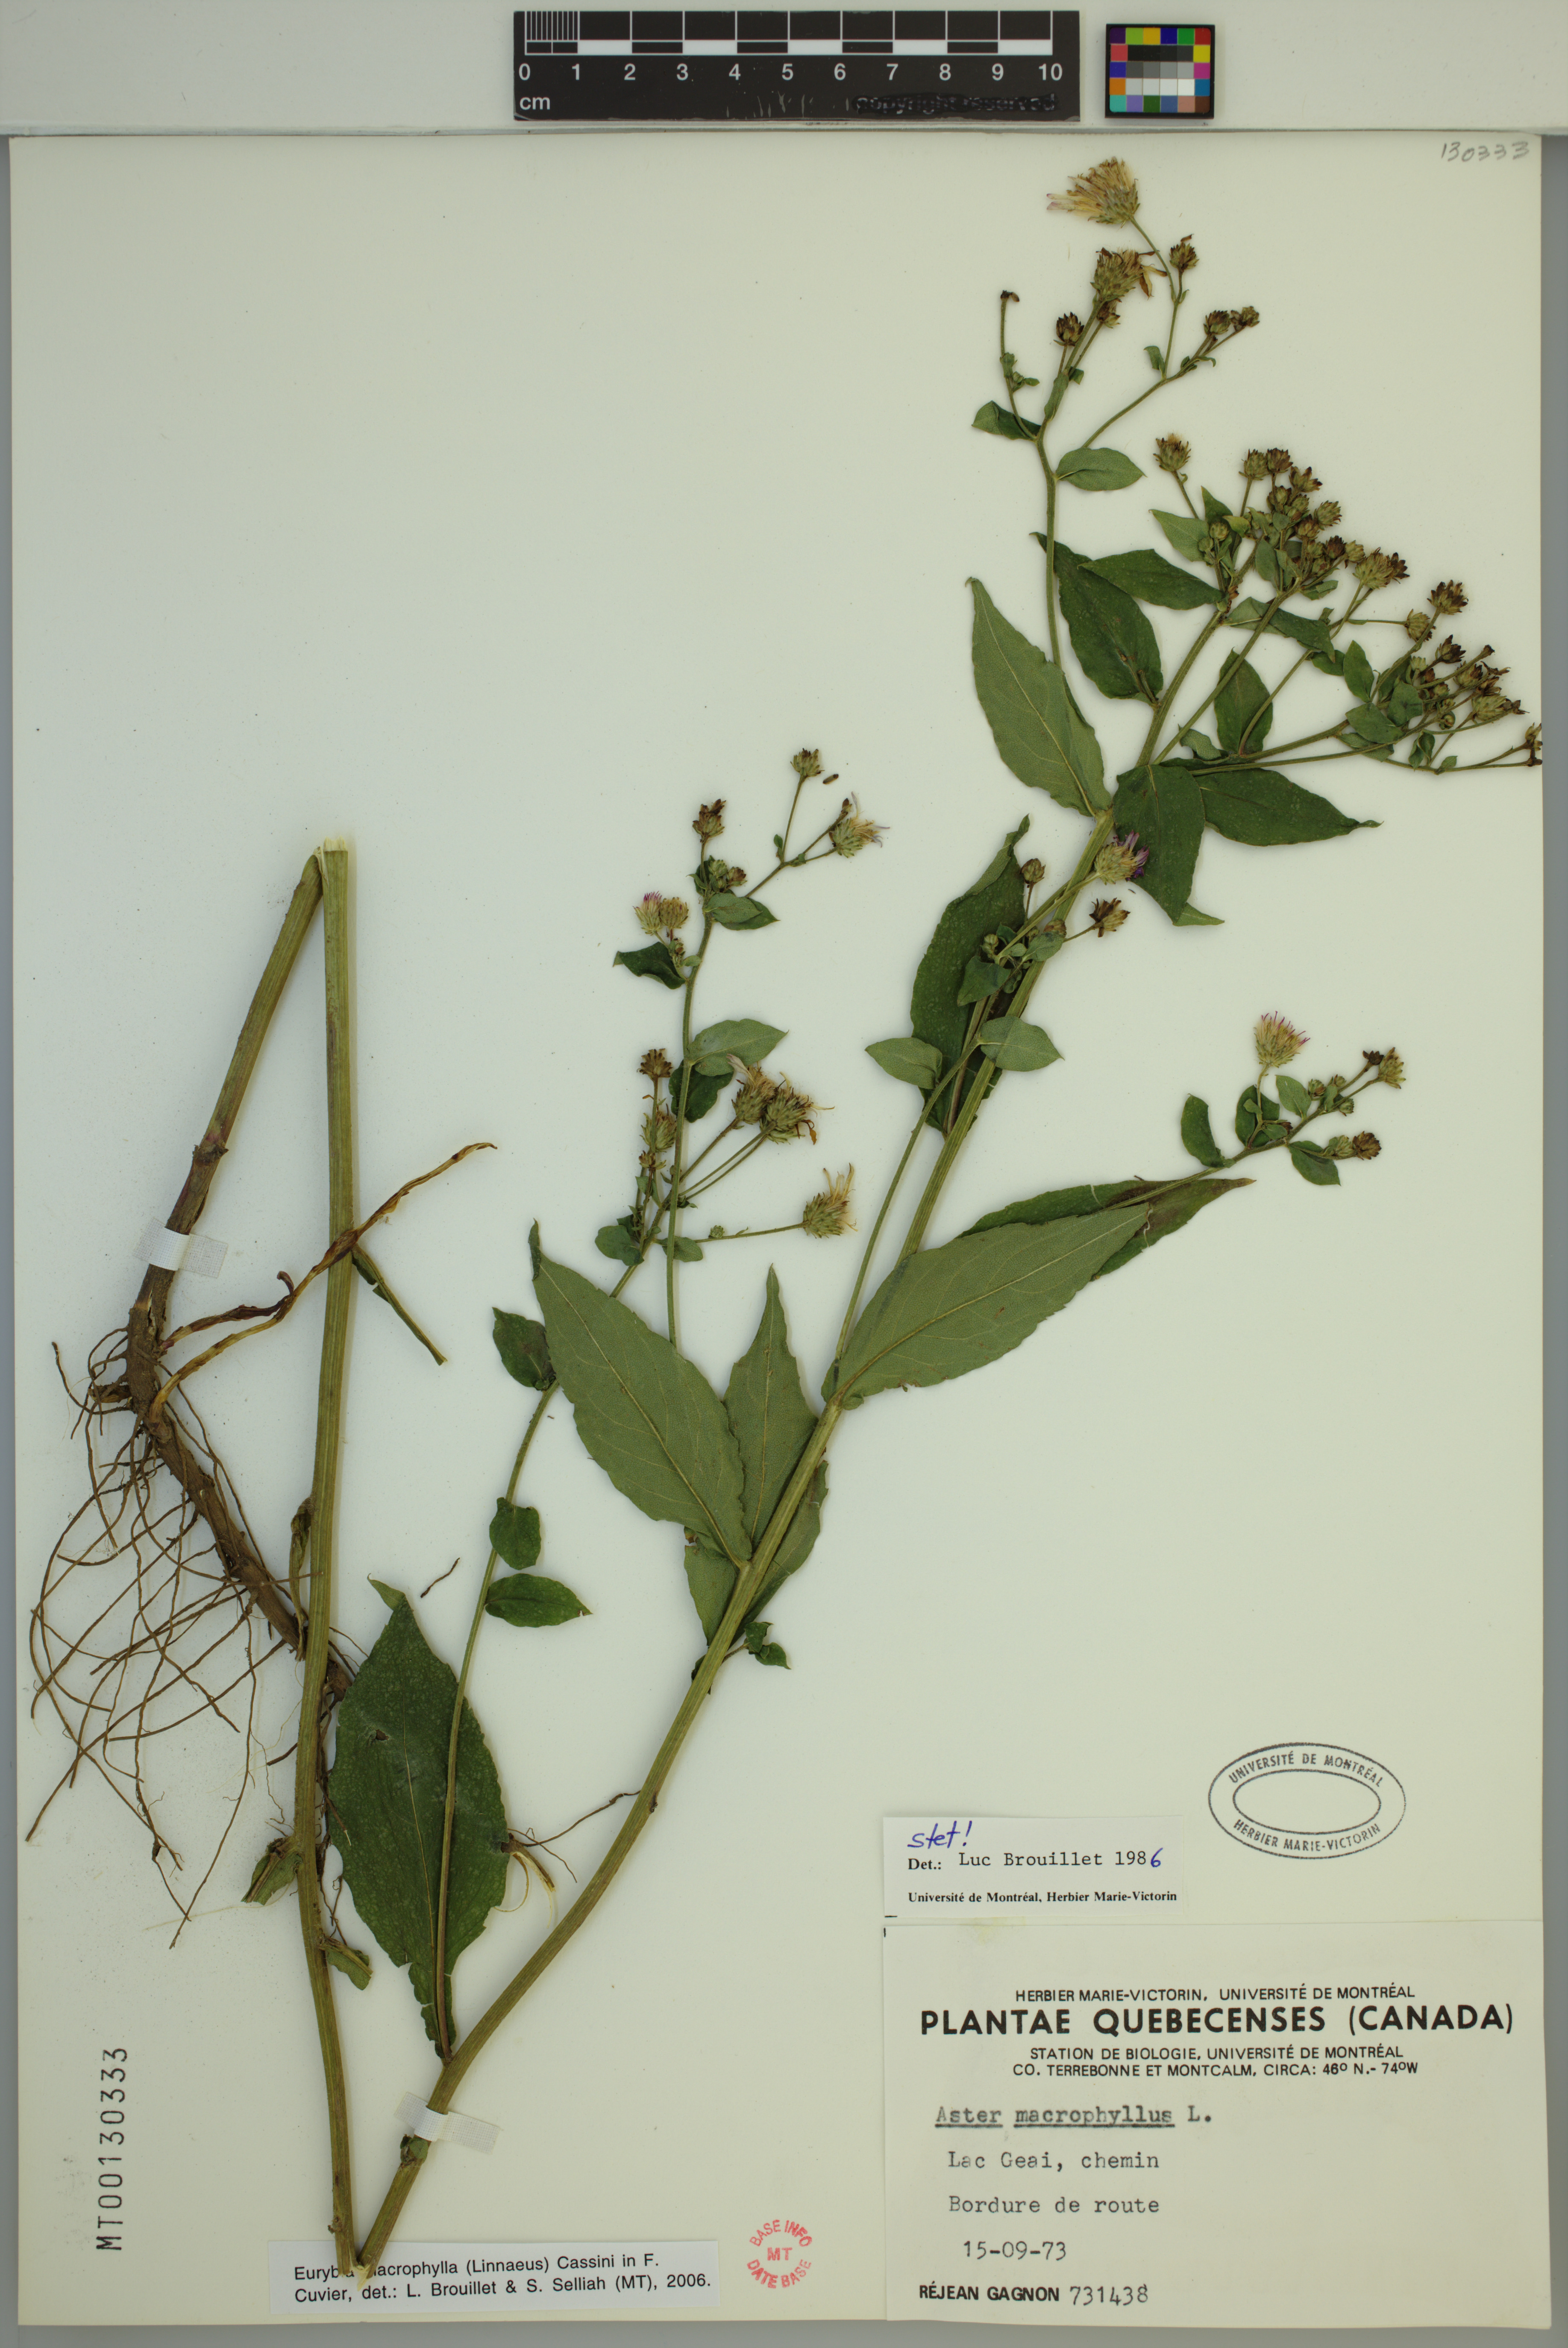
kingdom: Plantae
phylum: Tracheophyta
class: Magnoliopsida
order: Asterales
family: Asteraceae
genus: Eurybia
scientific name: Eurybia macrophylla
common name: Big-leaved aster
